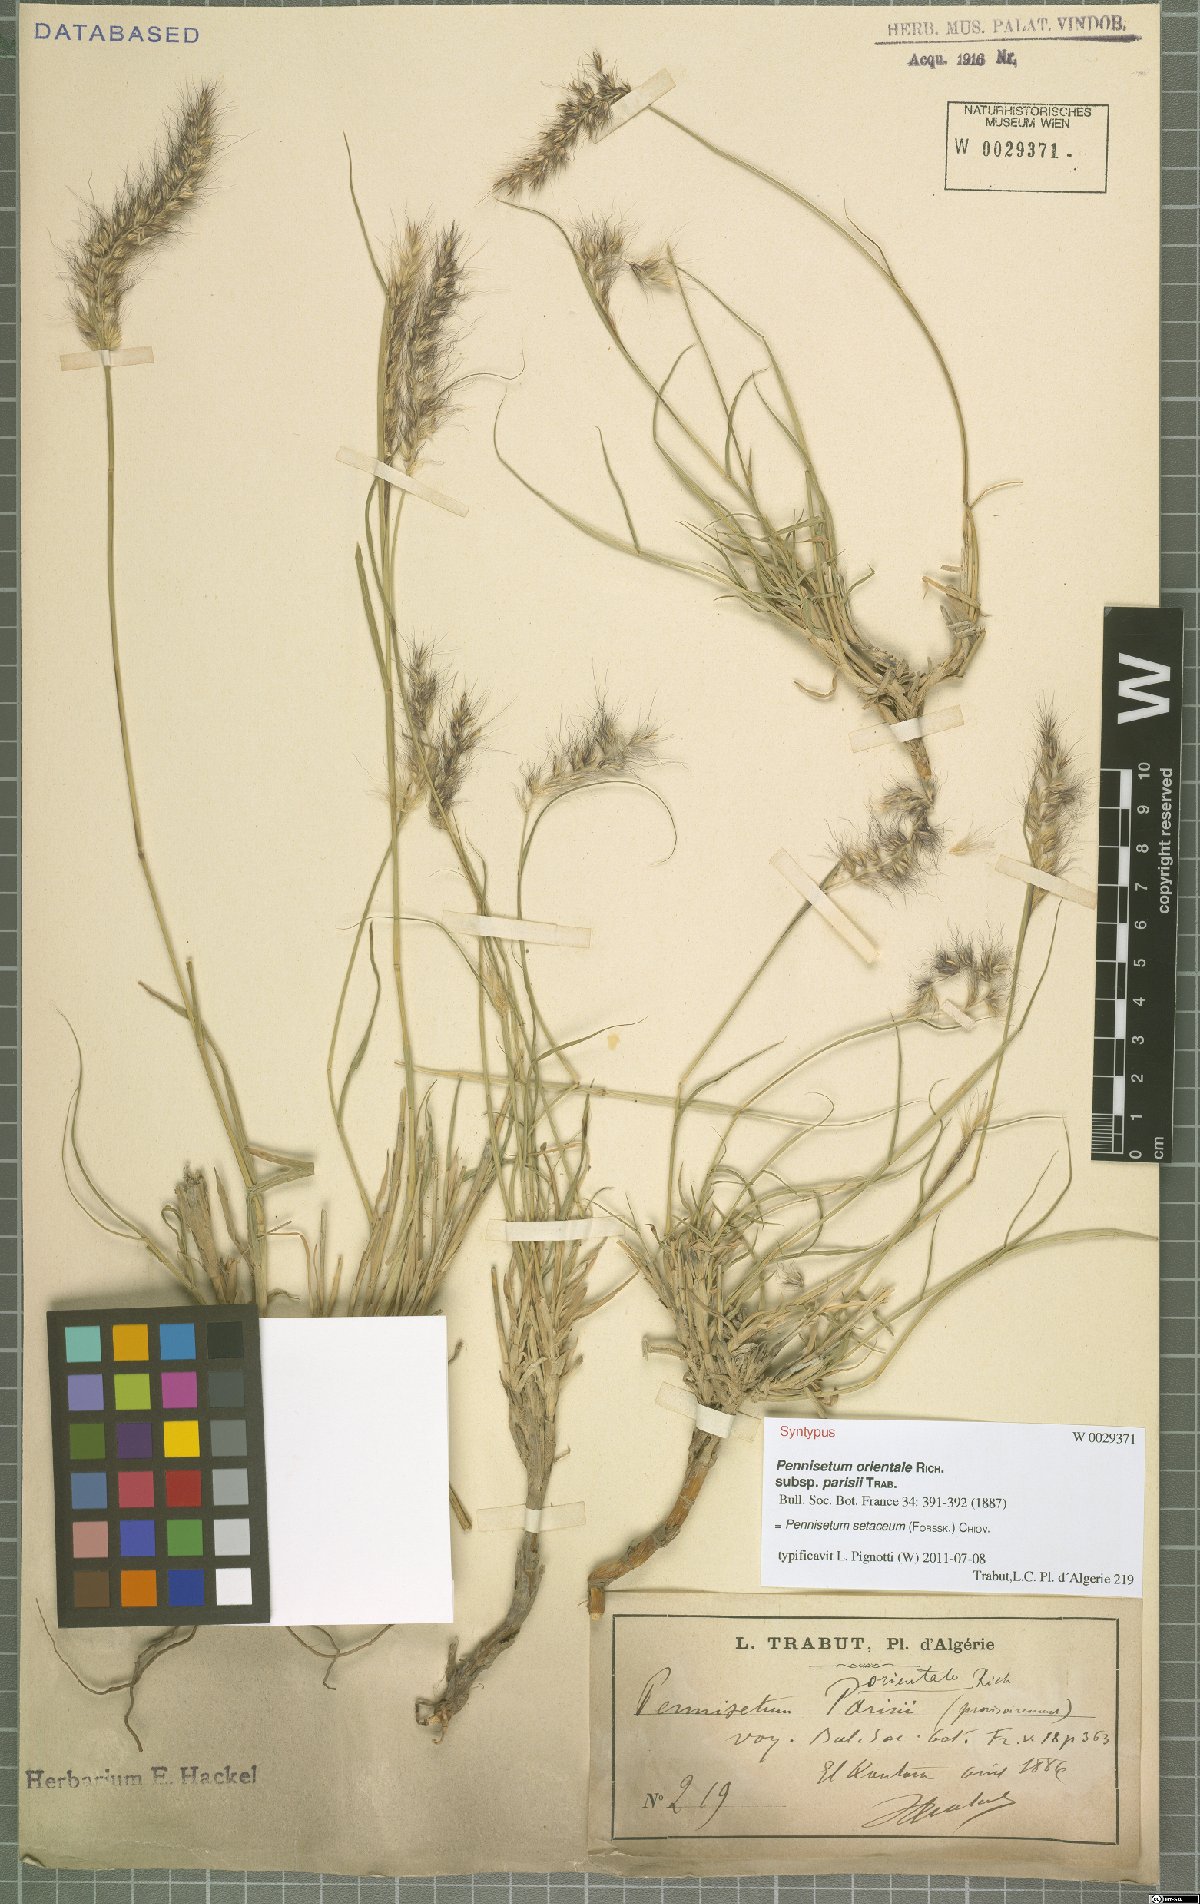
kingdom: Plantae
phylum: Tracheophyta
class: Liliopsida
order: Poales
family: Poaceae
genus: Cenchrus
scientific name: Cenchrus setaceus
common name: Crimson fountaingrass
